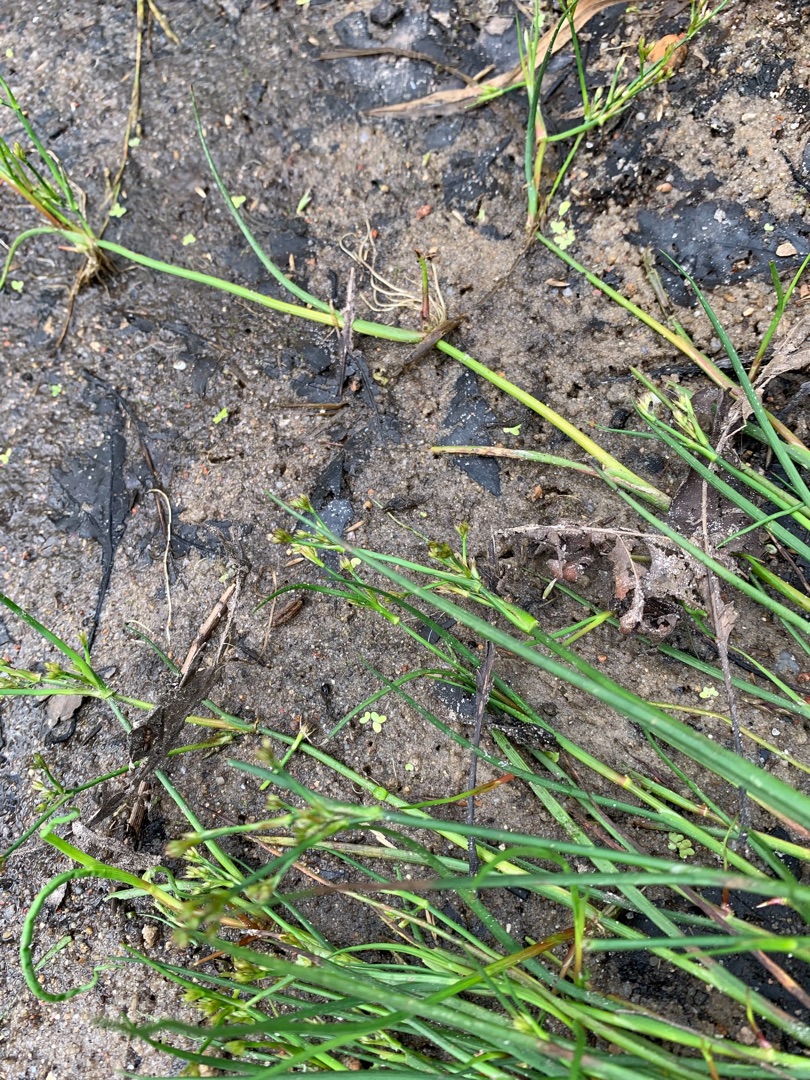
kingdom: Plantae
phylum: Tracheophyta
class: Liliopsida
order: Poales
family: Juncaceae
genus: Juncus
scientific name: Juncus articulatus
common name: Glanskapslet siv
